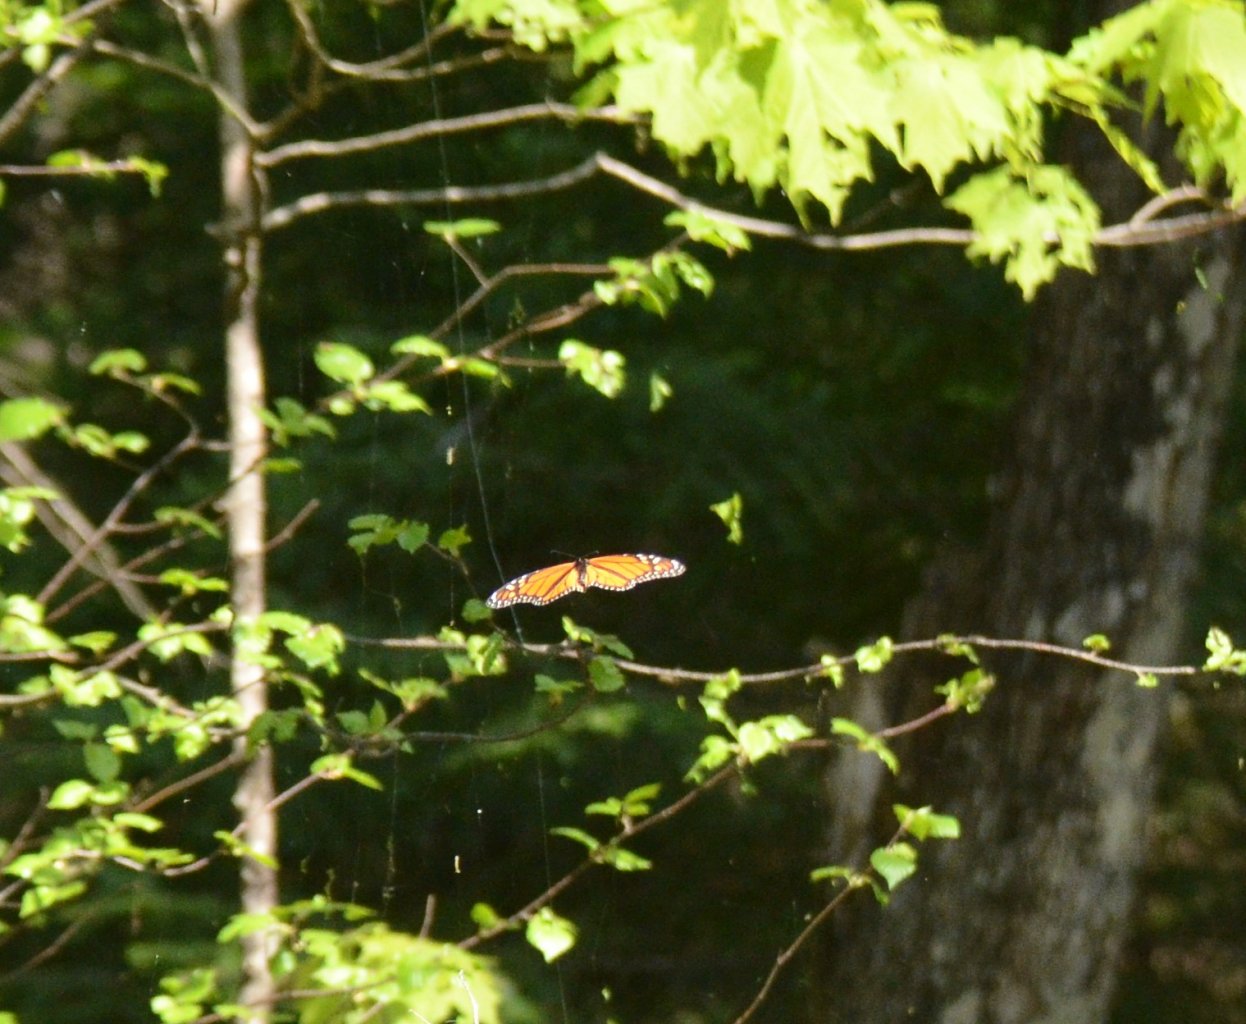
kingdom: Animalia
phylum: Arthropoda
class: Insecta
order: Lepidoptera
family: Nymphalidae
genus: Danaus
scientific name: Danaus plexippus
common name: Monarch
